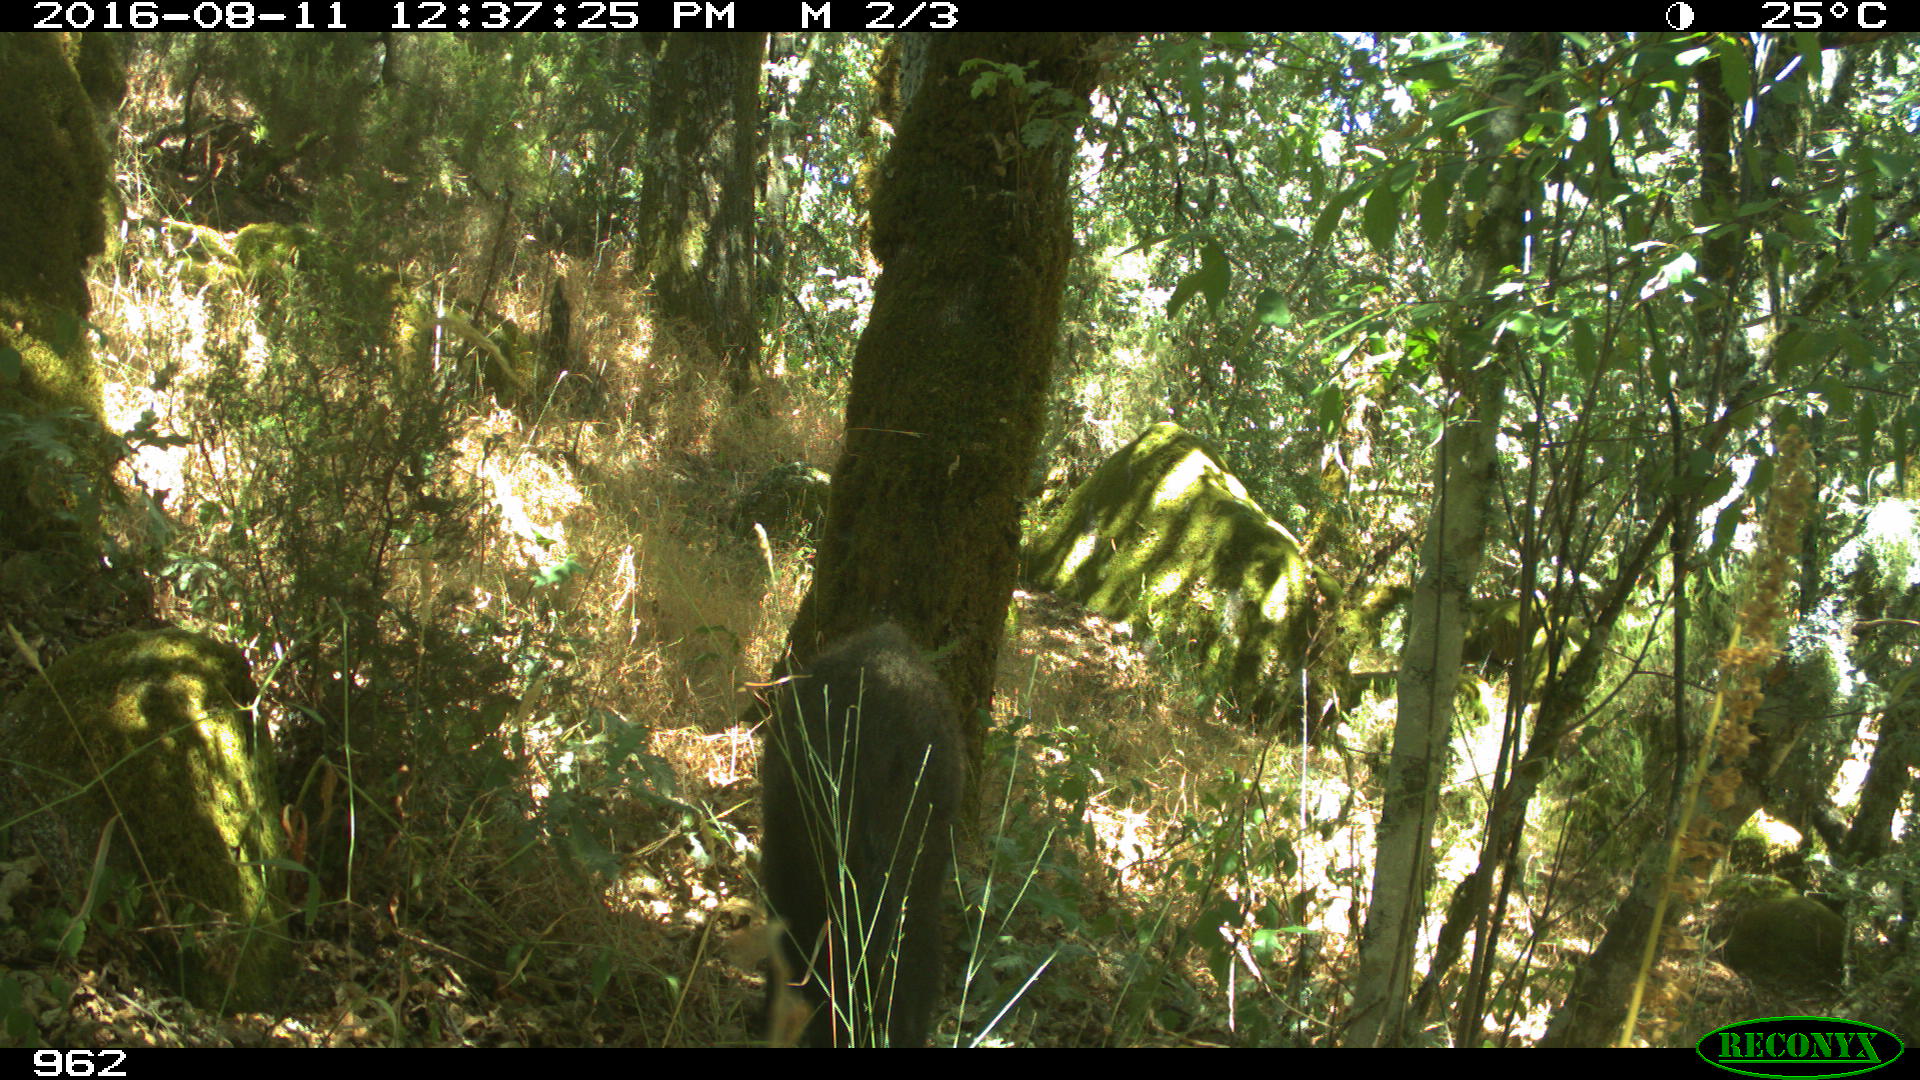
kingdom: Animalia
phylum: Chordata
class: Mammalia
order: Artiodactyla
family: Suidae
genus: Sus
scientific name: Sus scrofa
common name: Wild boar
